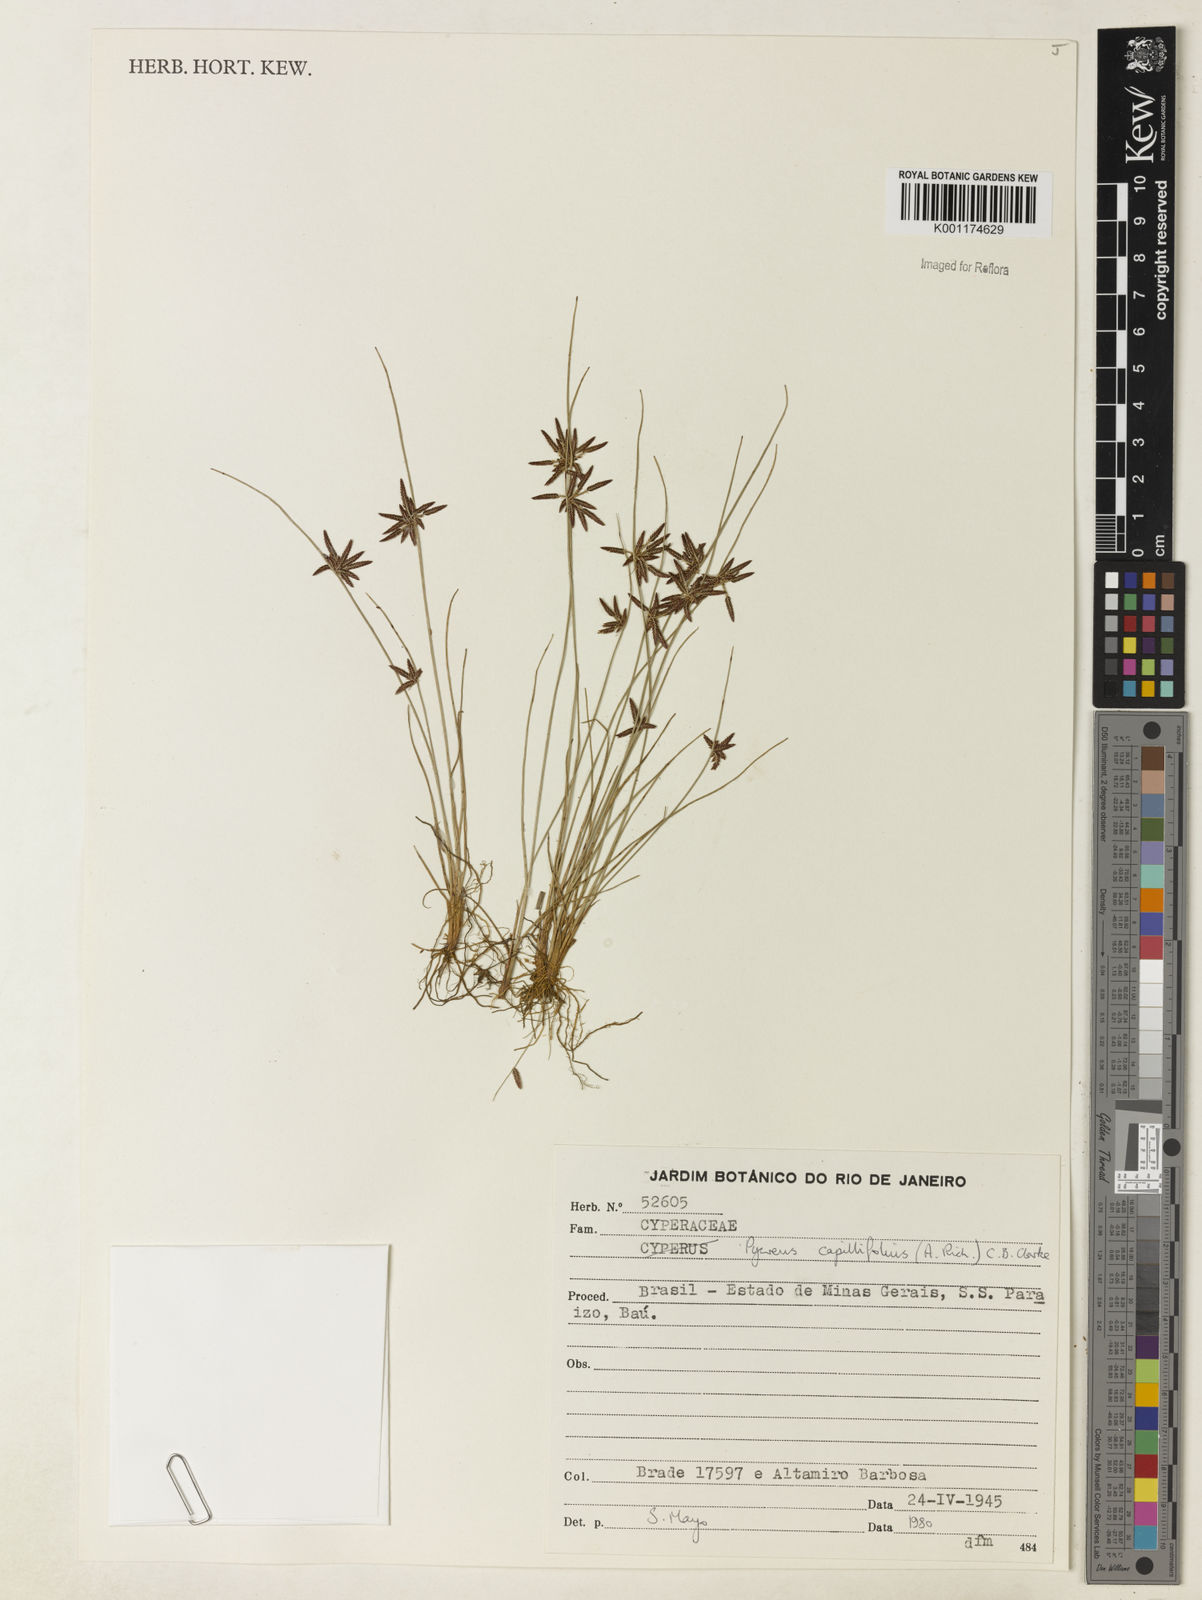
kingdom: Plantae
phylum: Tracheophyta
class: Liliopsida
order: Poales
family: Cyperaceae
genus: Cyperus
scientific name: Cyperus capillifolius
